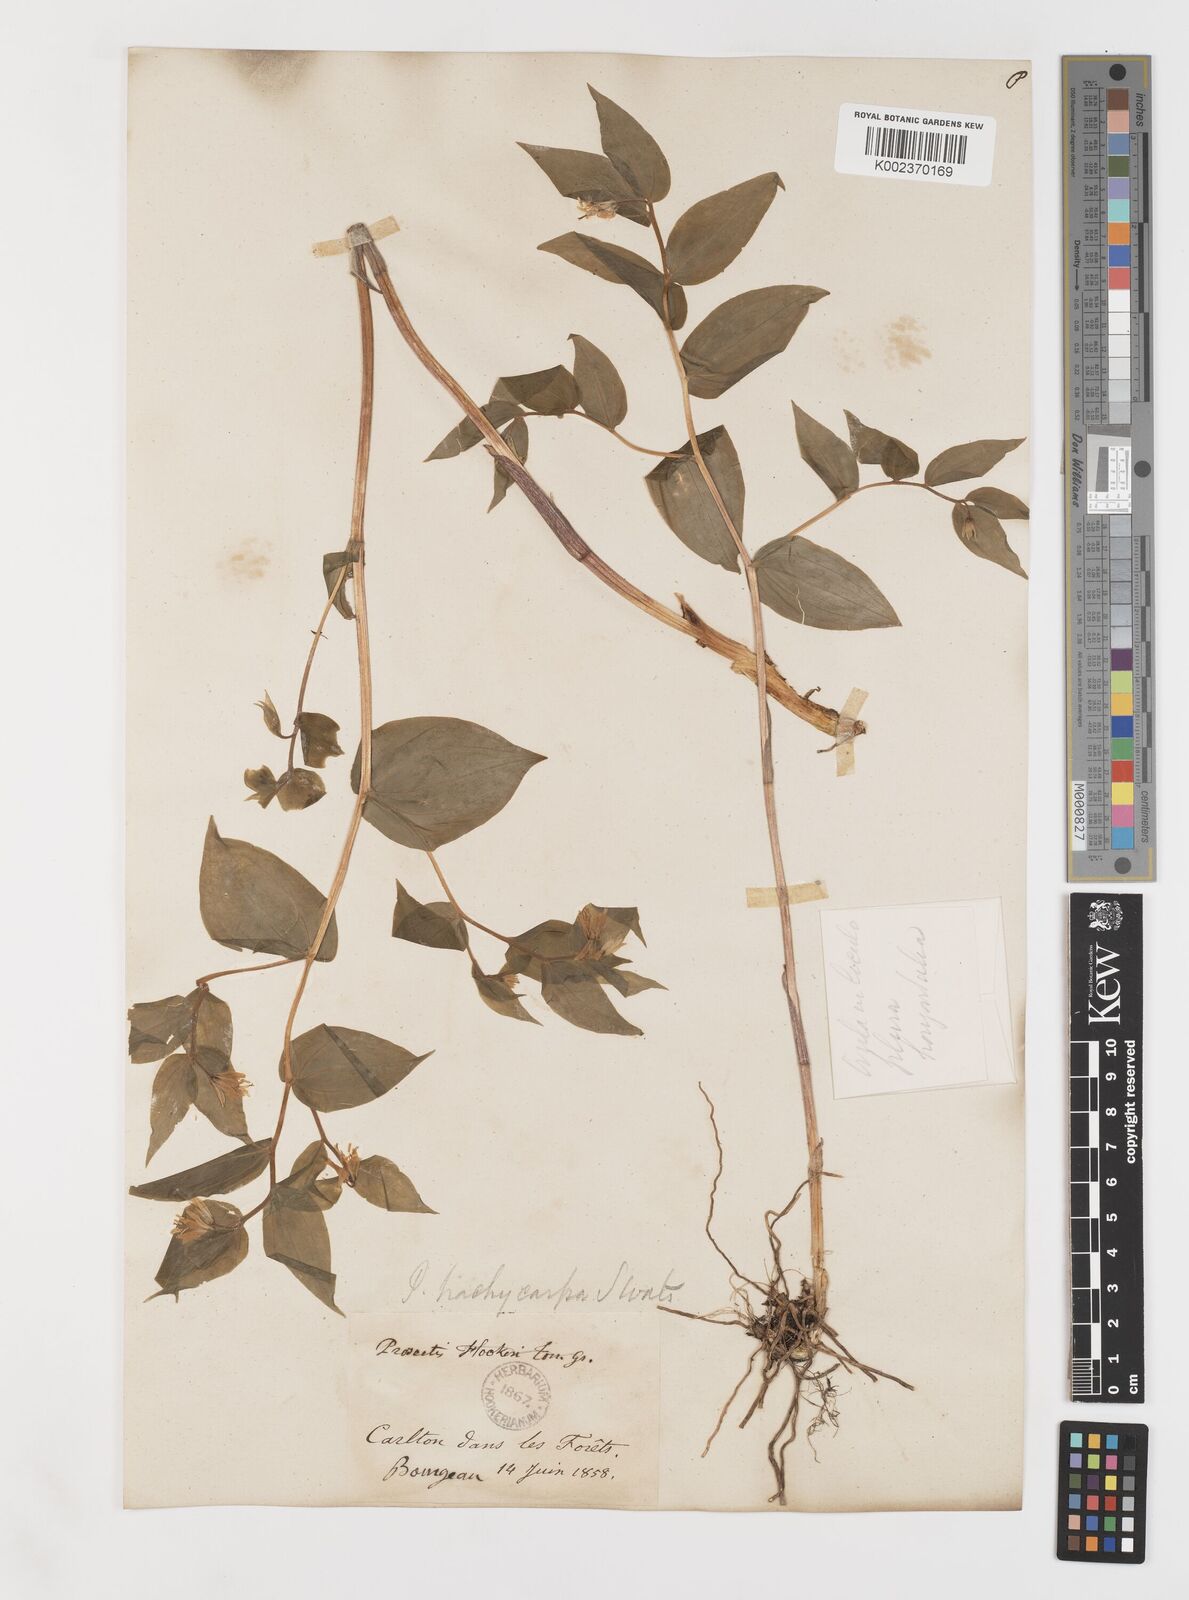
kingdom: Plantae
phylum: Tracheophyta
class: Liliopsida
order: Liliales
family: Liliaceae
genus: Prosartes
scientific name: Prosartes trachycarpa
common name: Rough-fruit fairy-bells
